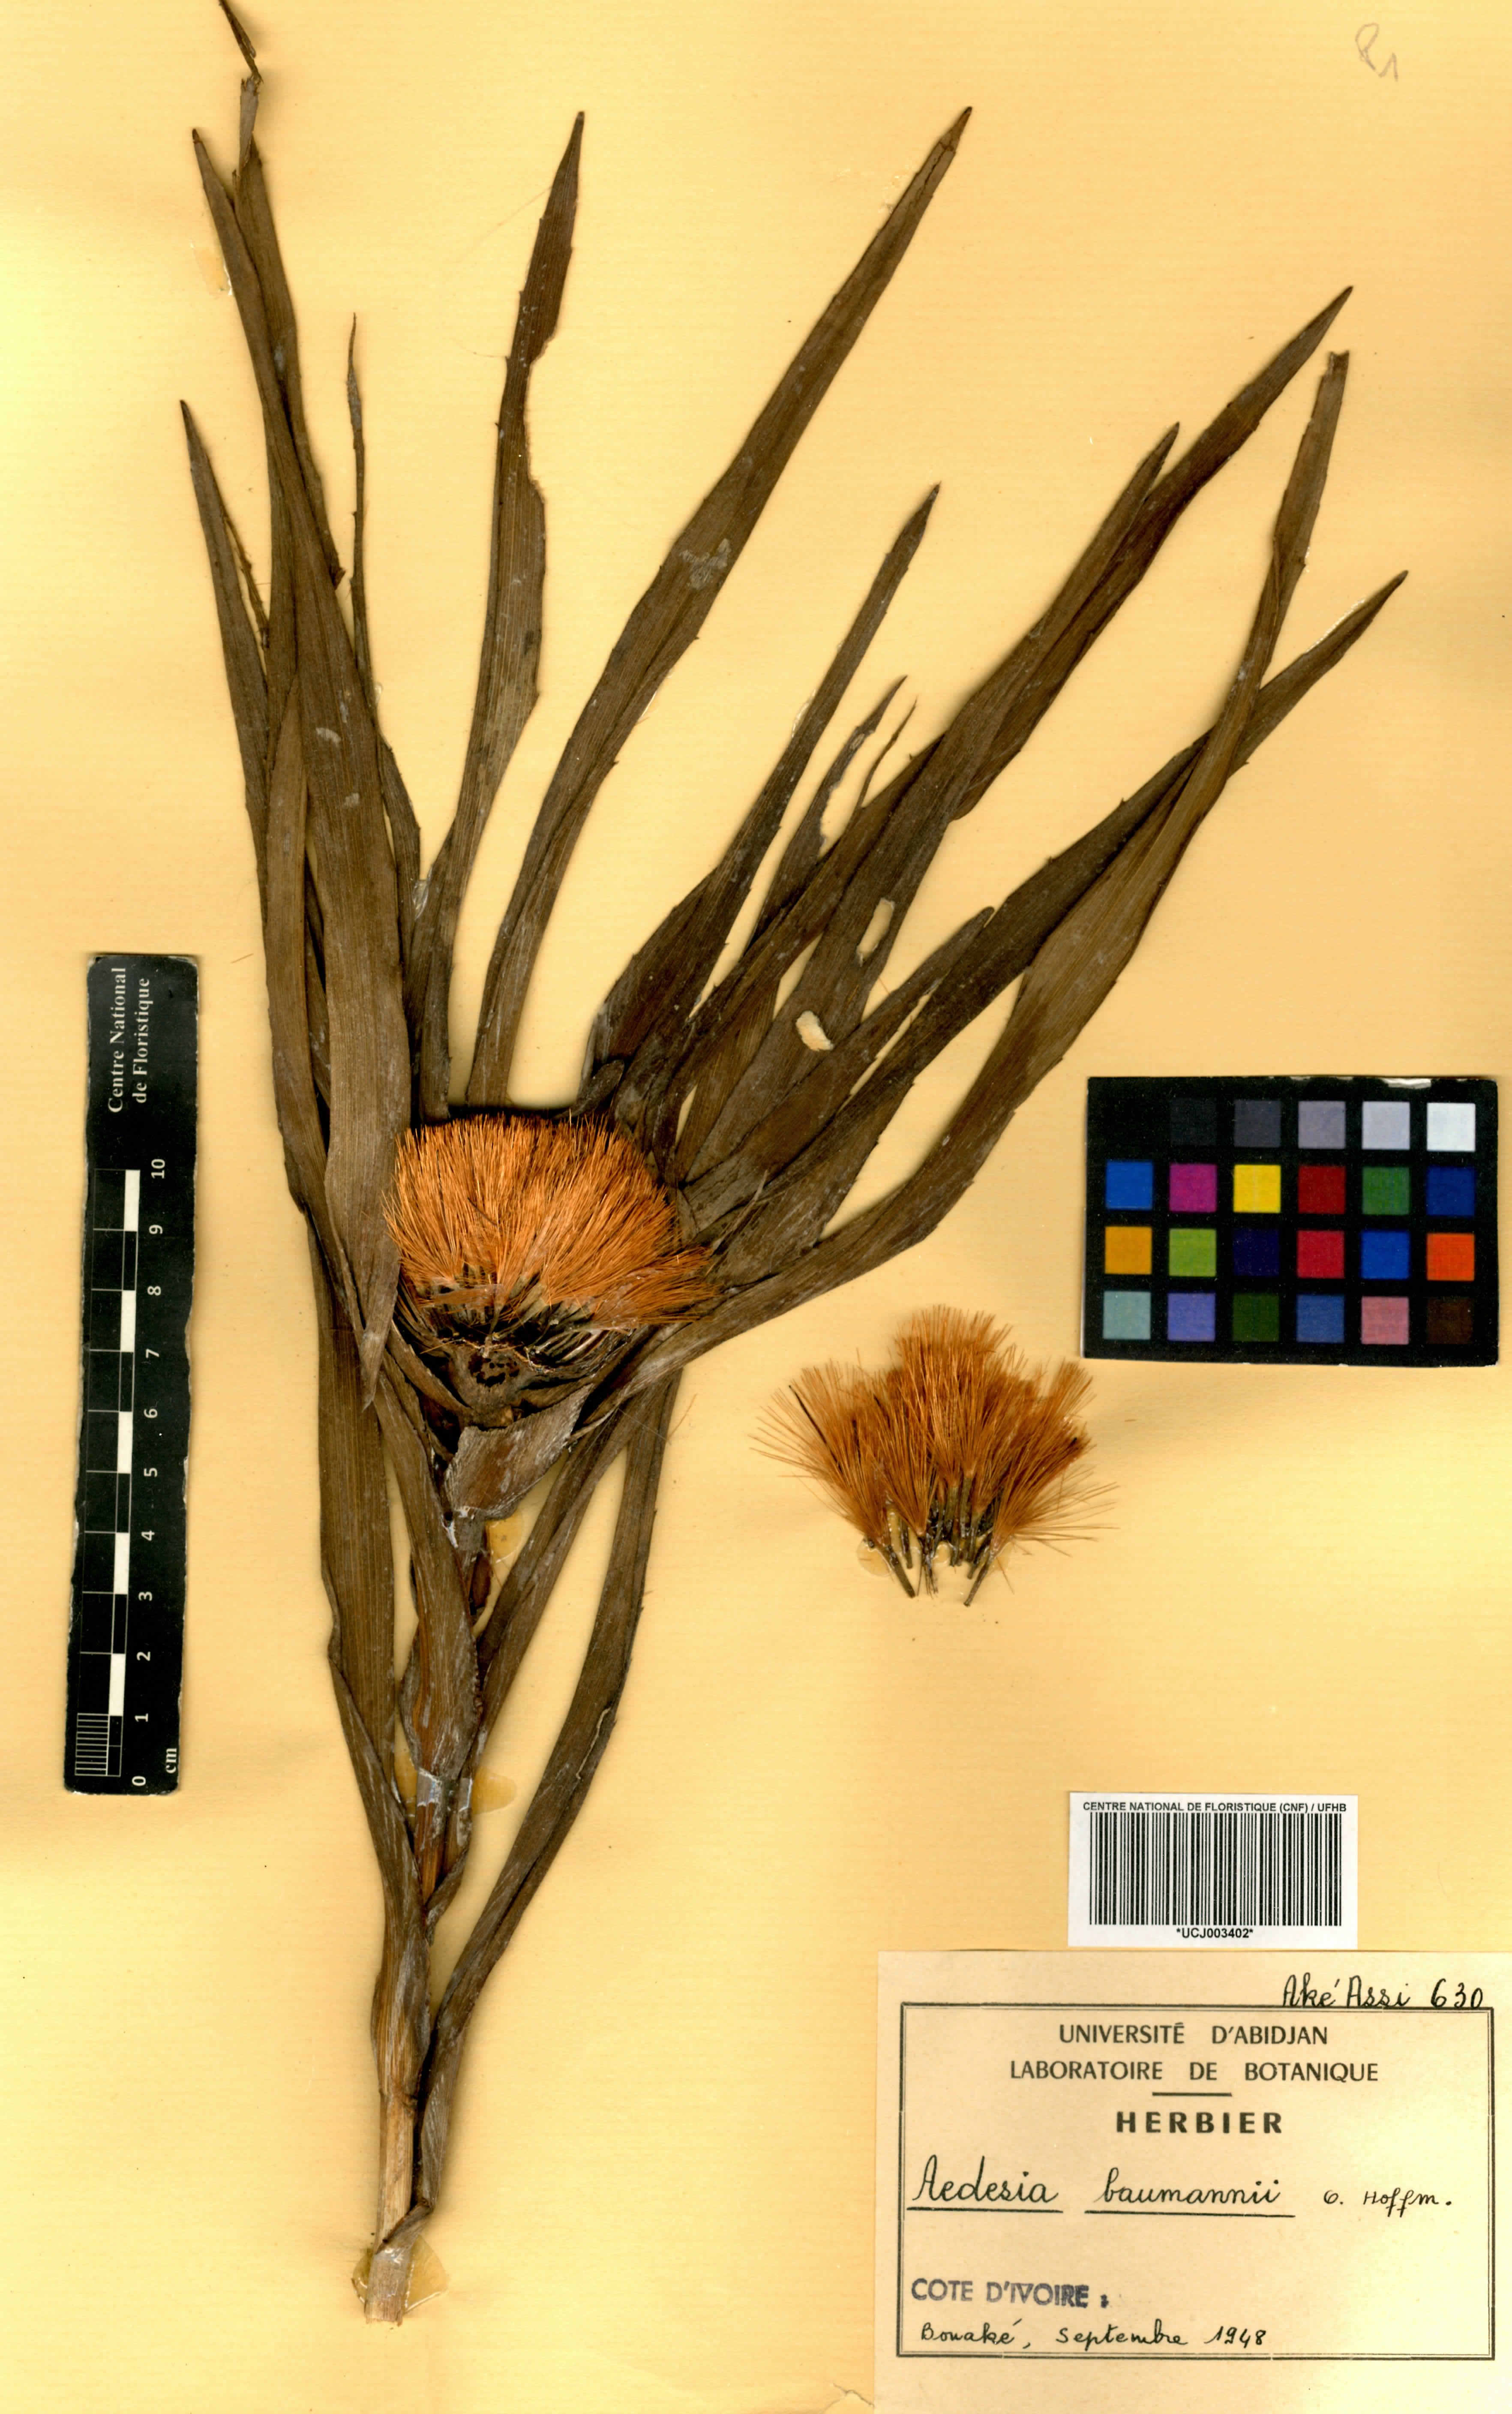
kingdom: Plantae
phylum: Tracheophyta
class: Magnoliopsida
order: Asterales
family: Asteraceae
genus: Aedesia
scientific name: Aedesia glabra
